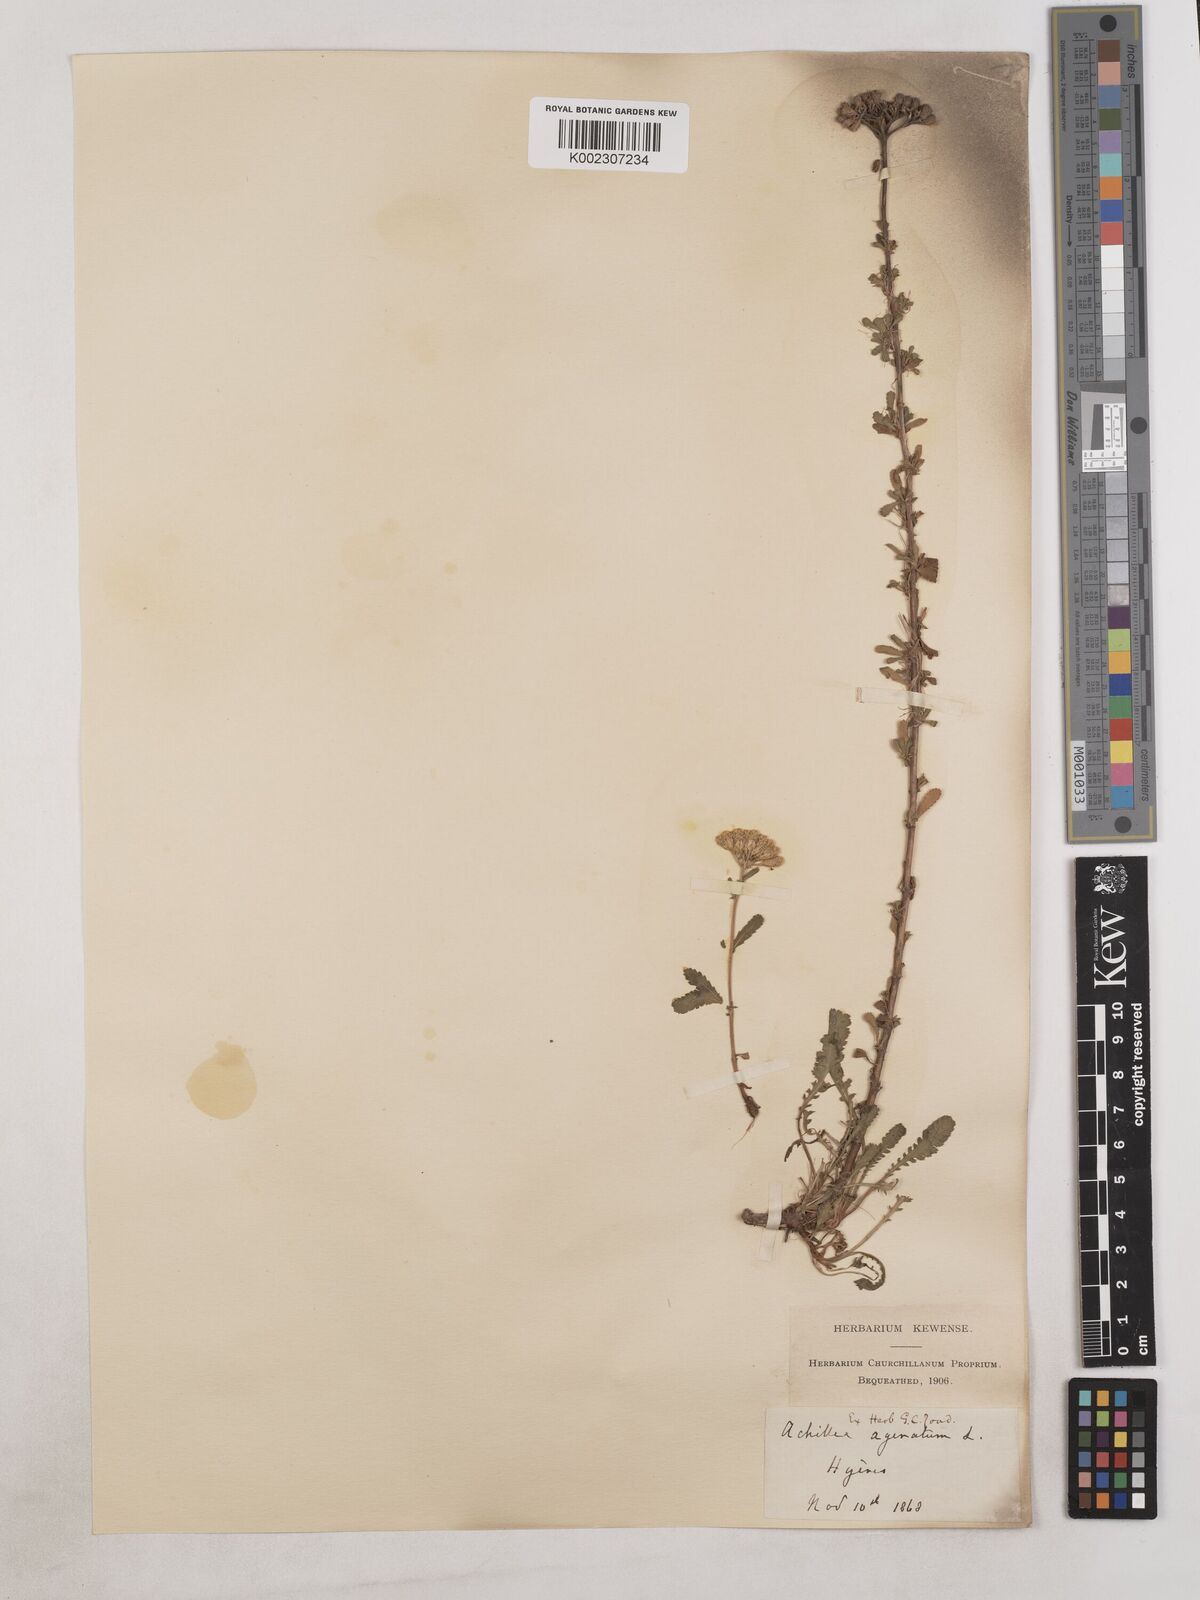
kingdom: Plantae
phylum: Tracheophyta
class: Magnoliopsida
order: Asterales
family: Asteraceae
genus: Achillea
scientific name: Achillea ageratum
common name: Sweet-nancy
